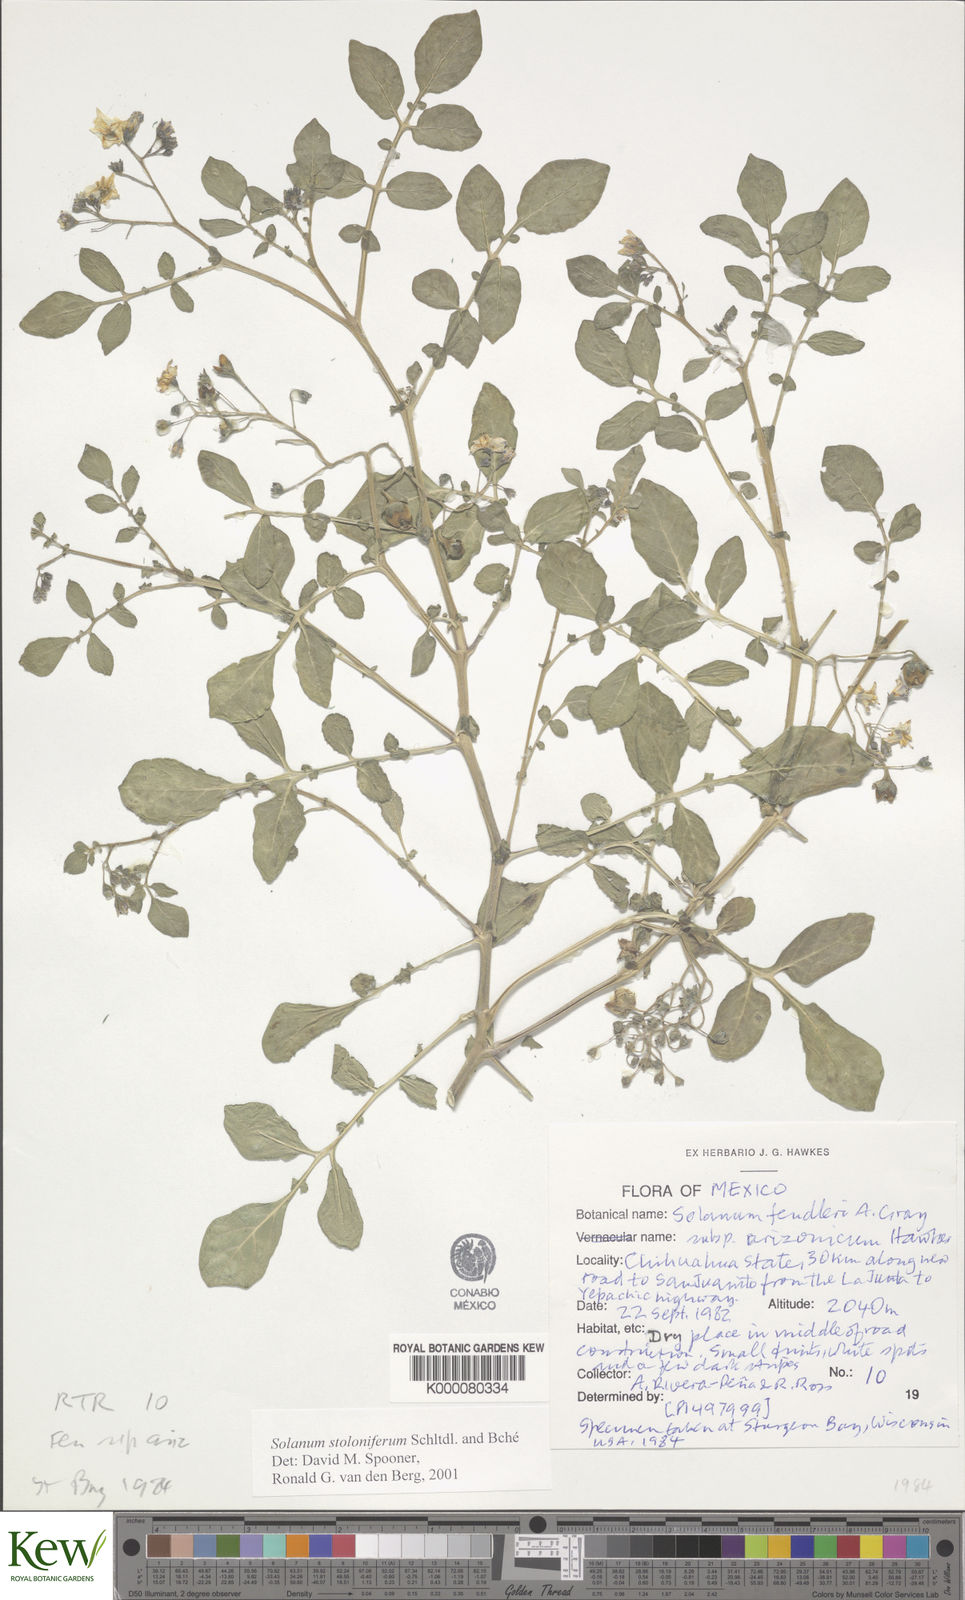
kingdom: Plantae
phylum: Tracheophyta
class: Magnoliopsida
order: Solanales
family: Solanaceae
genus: Solanum
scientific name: Solanum stoloniferum
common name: Fendler's nighshade
